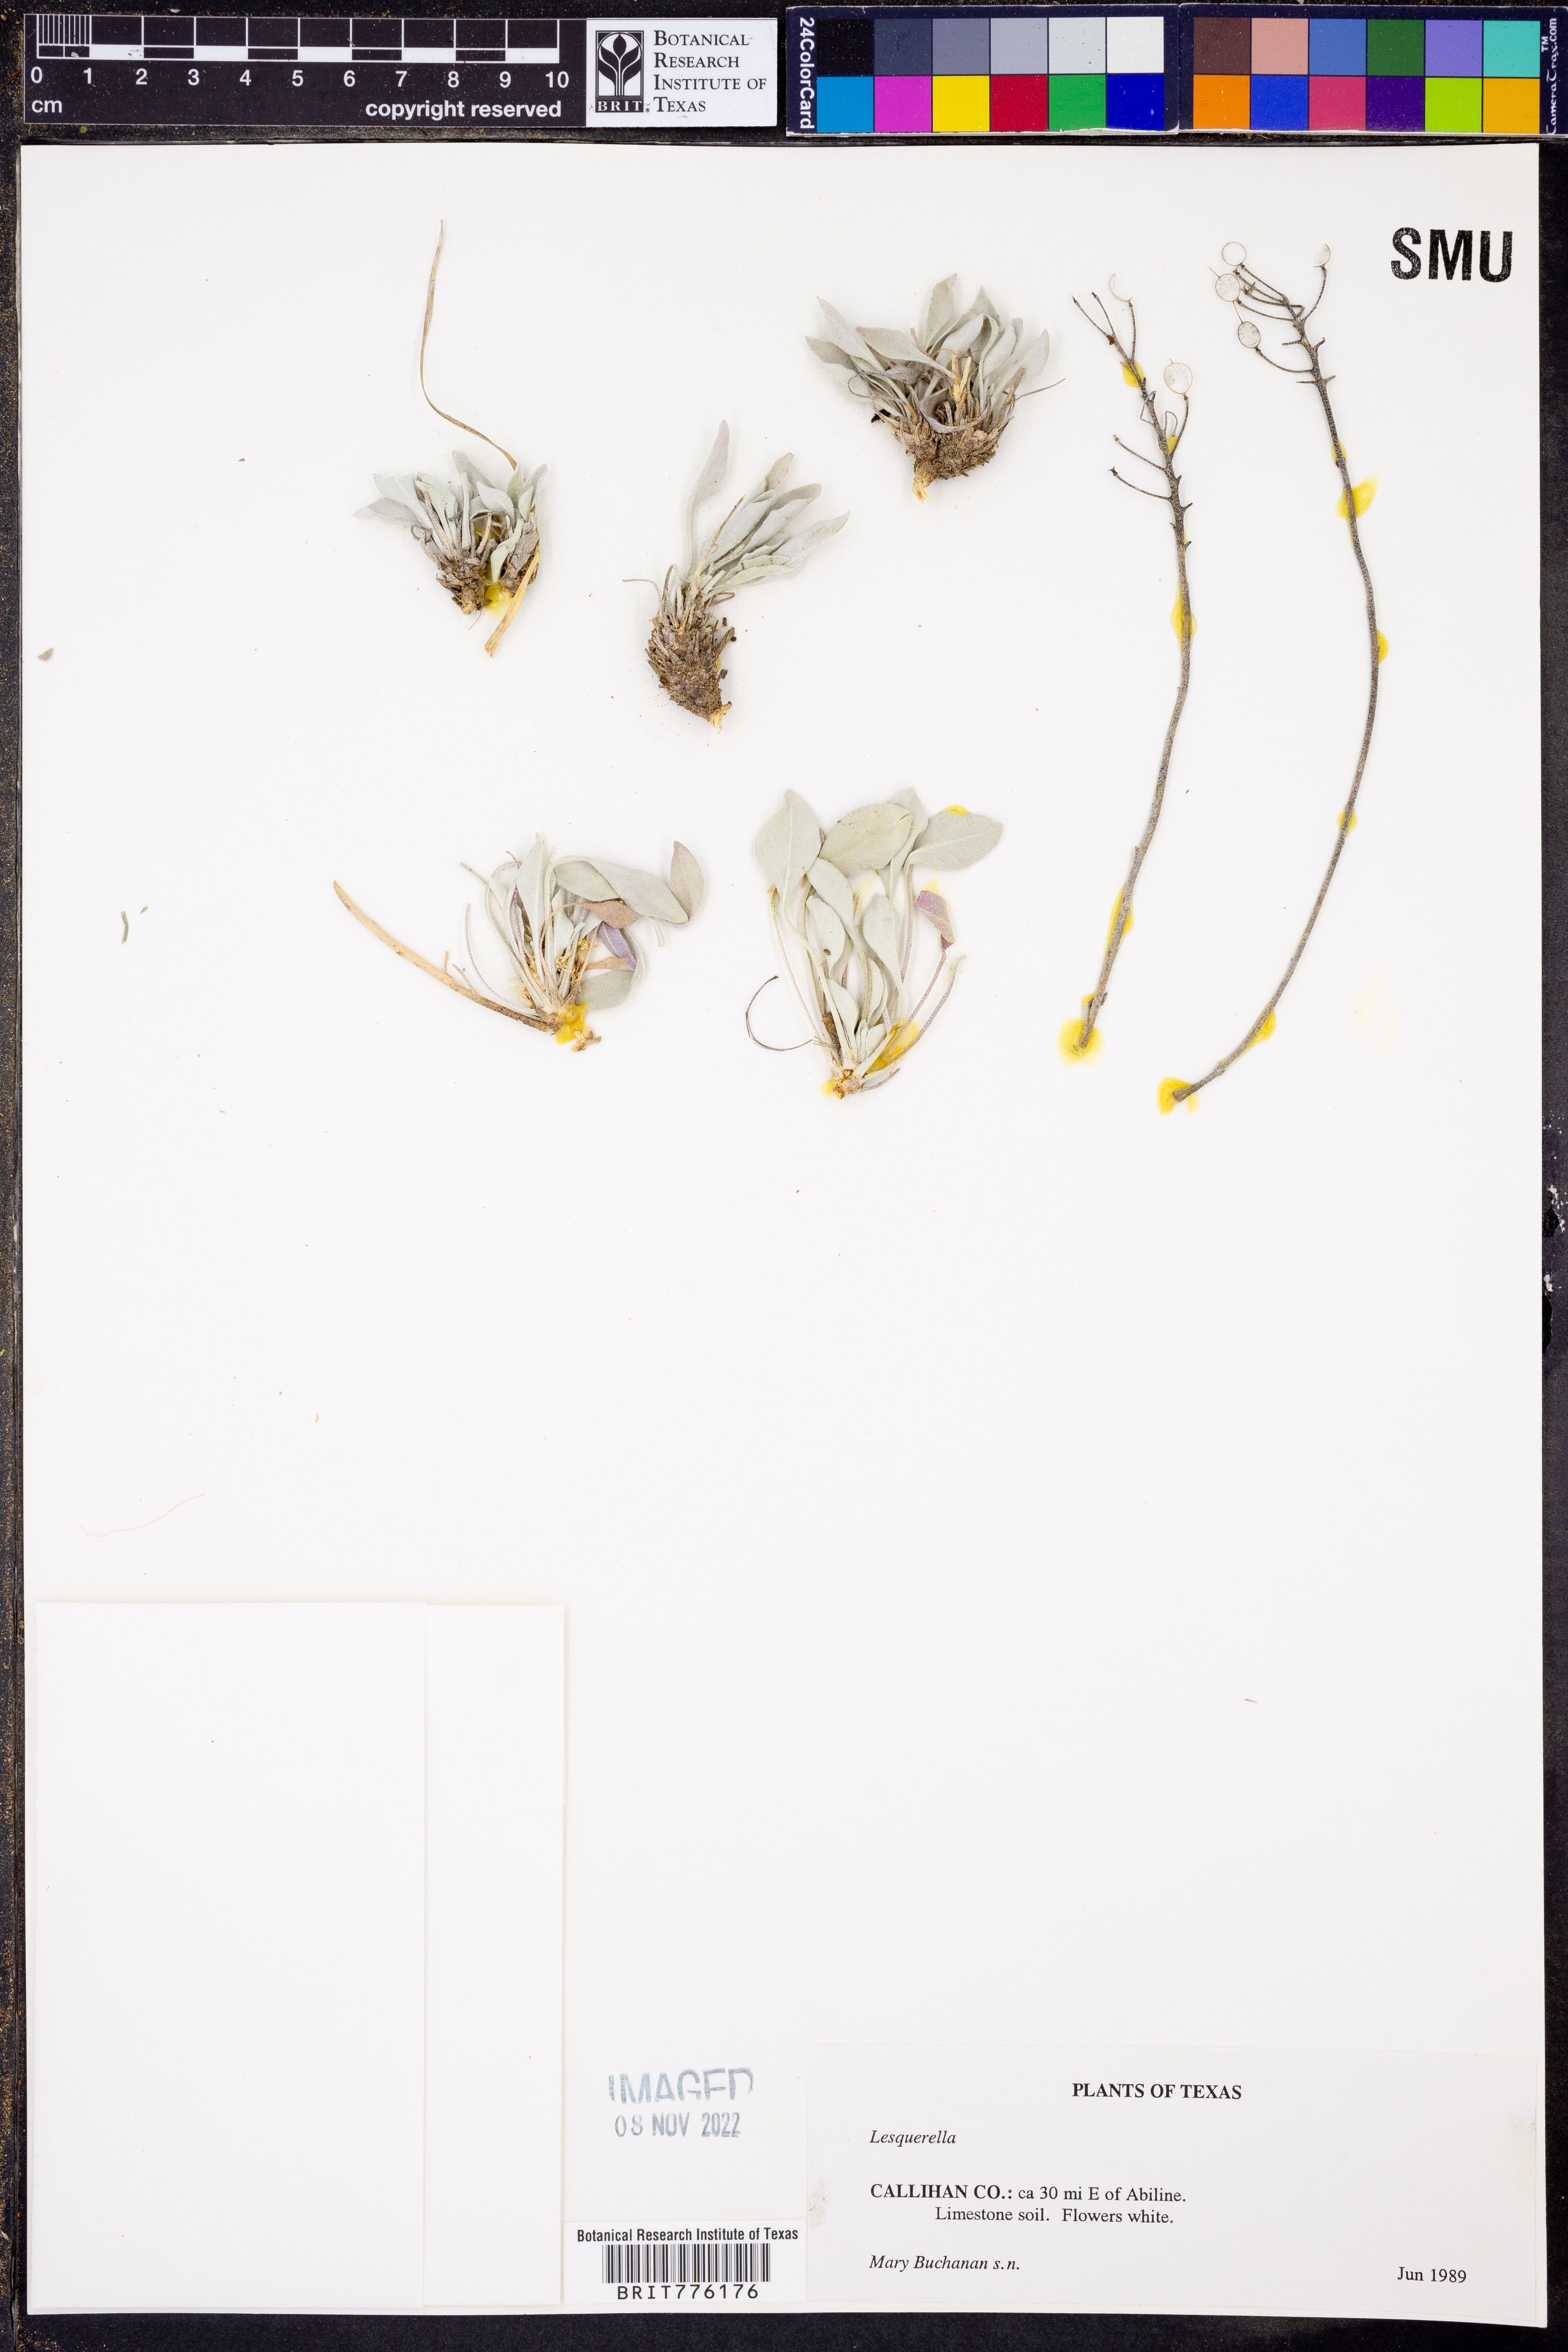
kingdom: Chromista
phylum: Cercozoa
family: Psammonobiotidae
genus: Lesquerella
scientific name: Lesquerella
